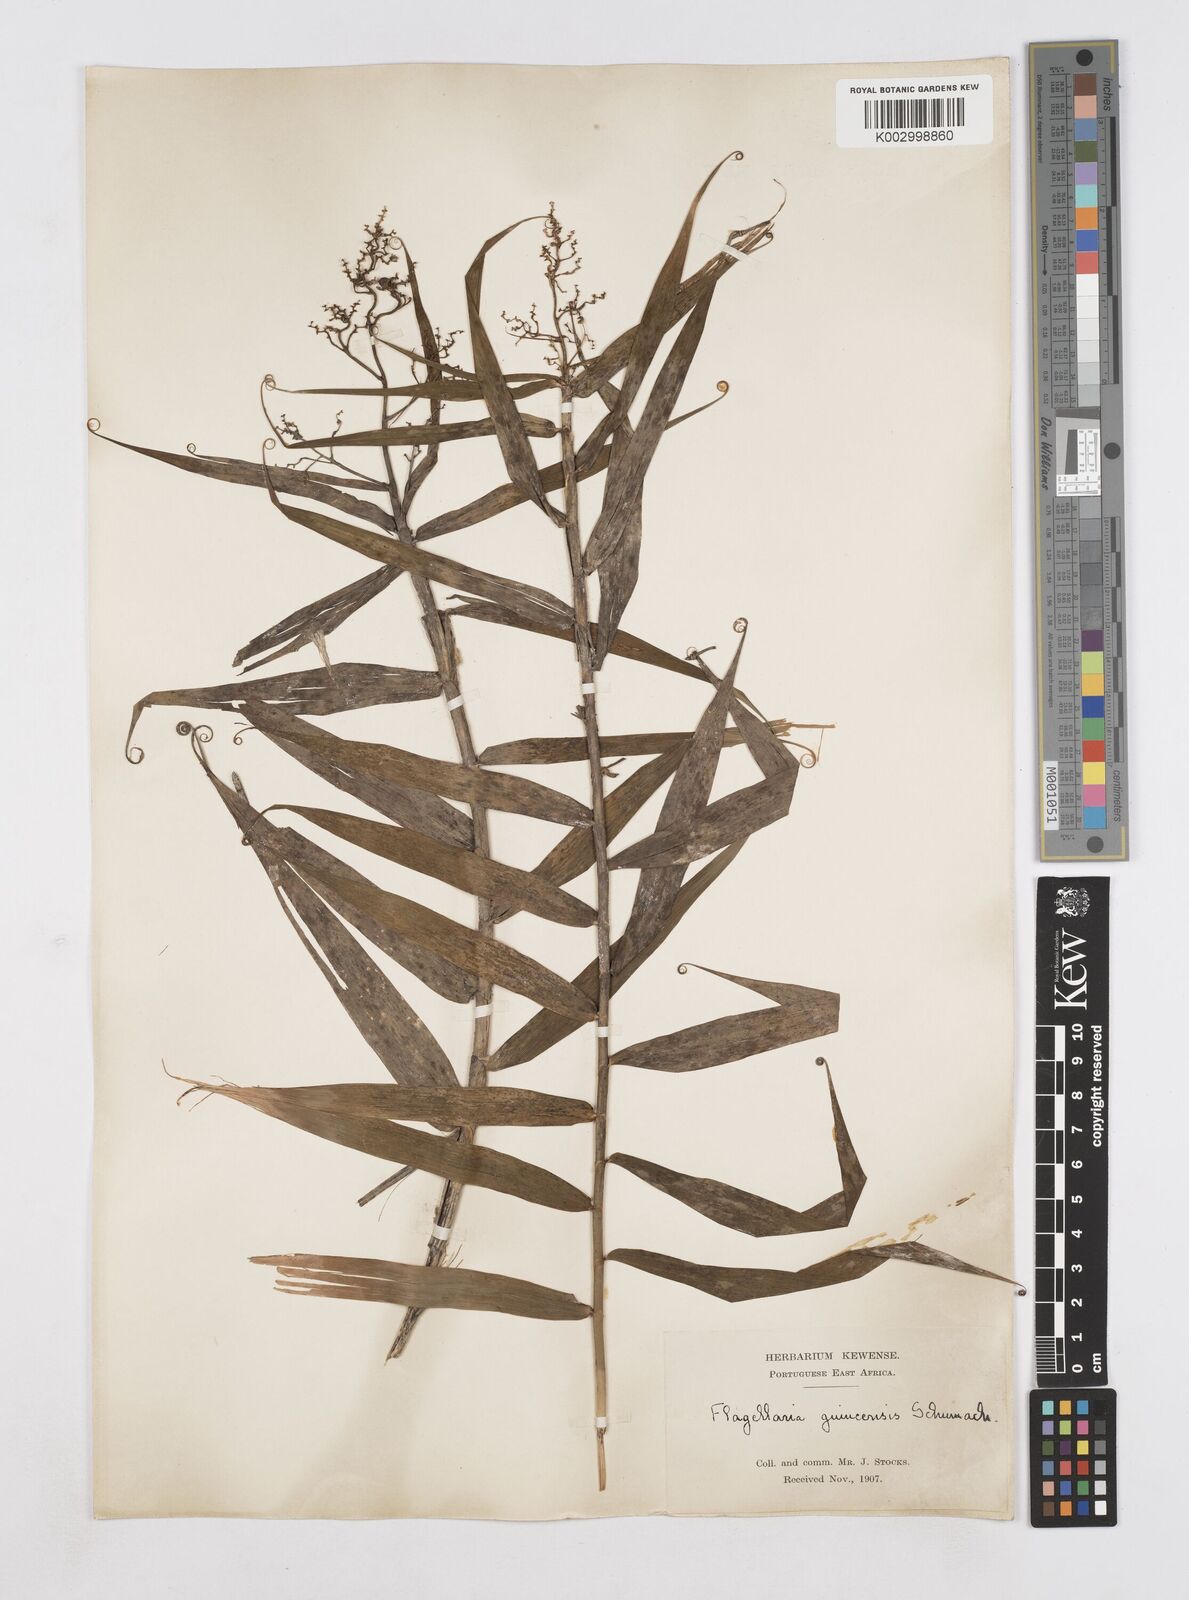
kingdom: Plantae
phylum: Tracheophyta
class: Liliopsida
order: Poales
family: Flagellariaceae
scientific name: Flagellariaceae
